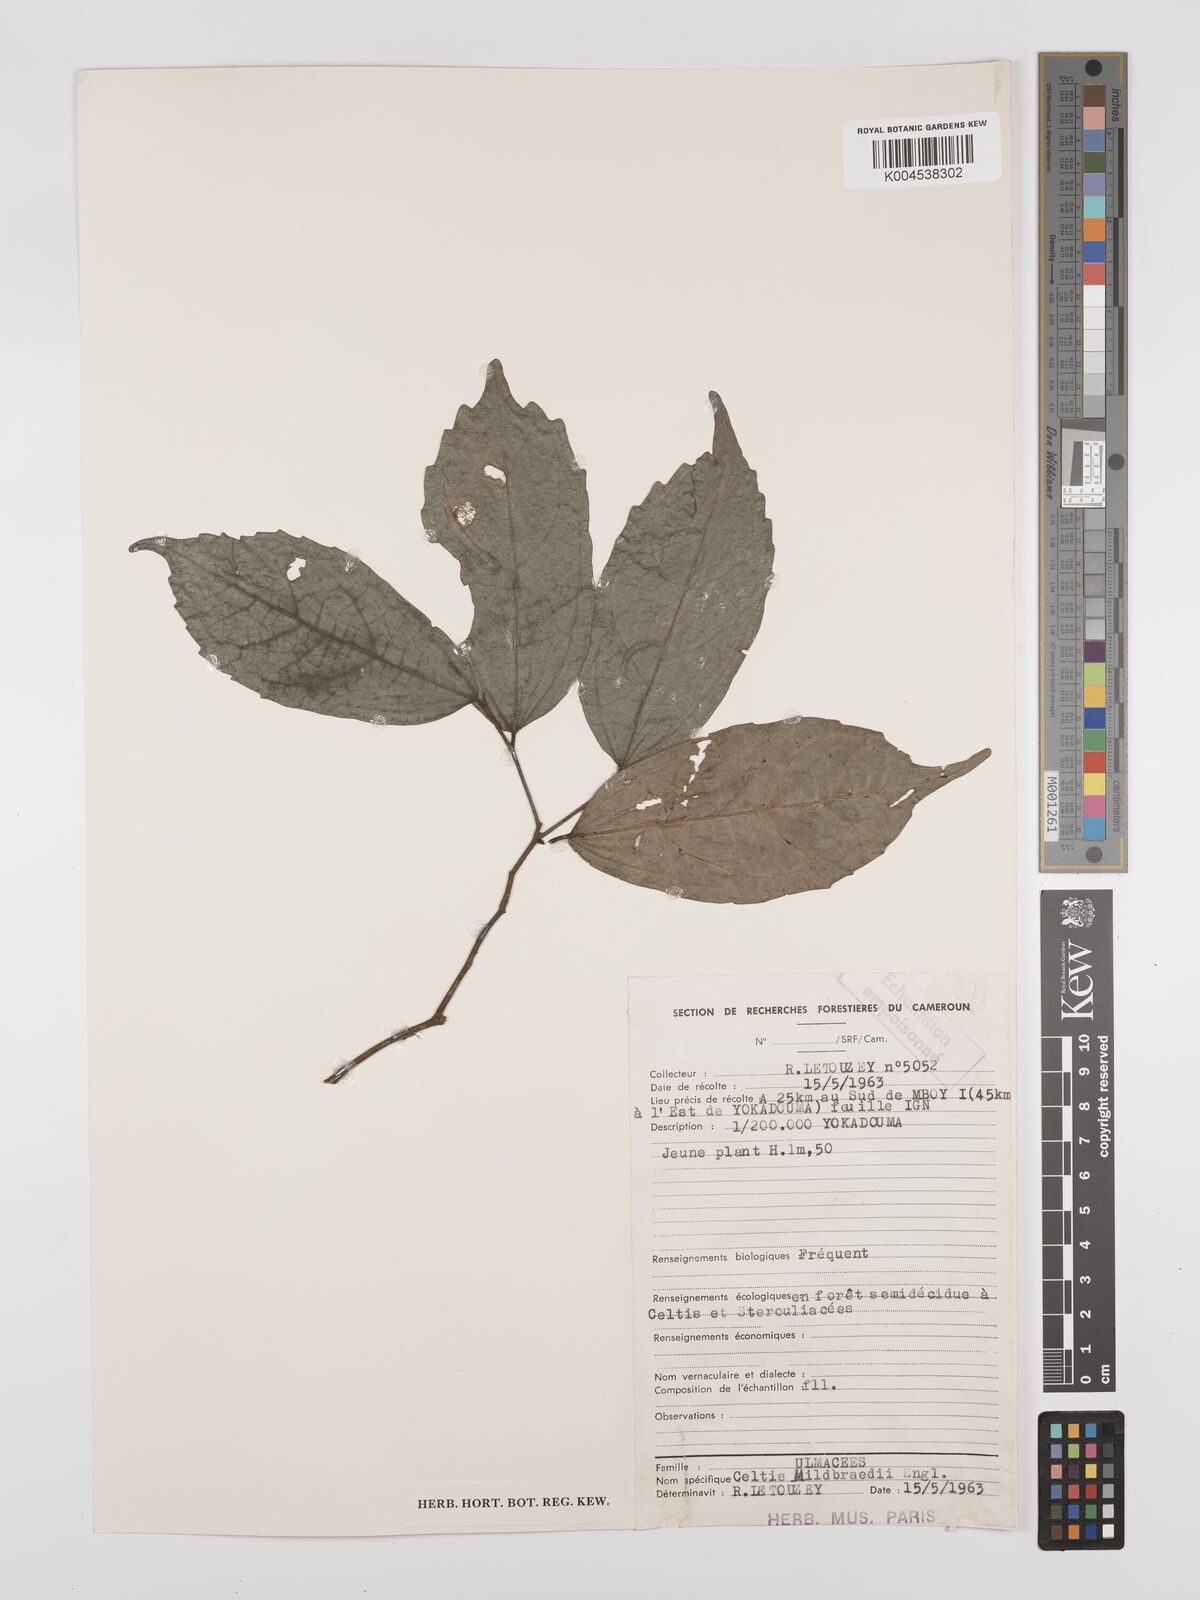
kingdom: Plantae
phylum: Tracheophyta
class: Magnoliopsida
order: Rosales
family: Cannabaceae
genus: Celtis
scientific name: Celtis mildbraedii
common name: Red-fruited stinkwood
